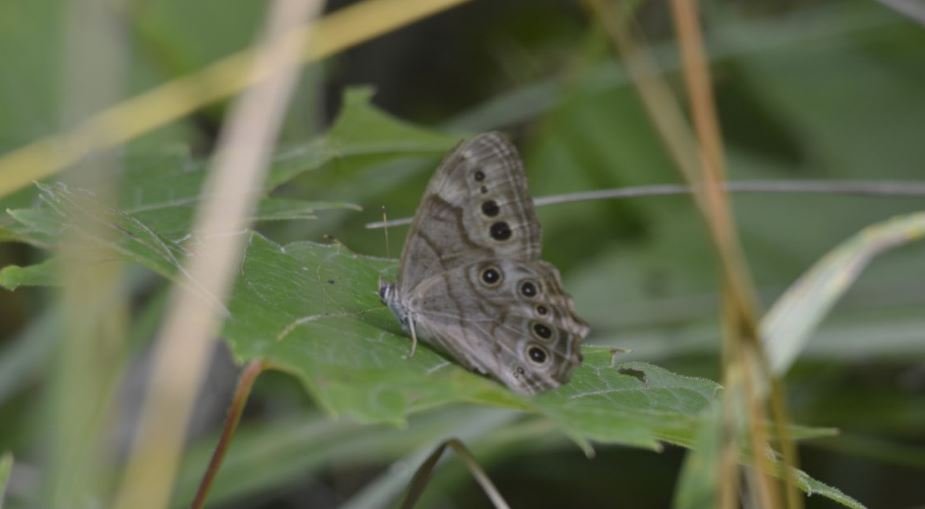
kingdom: Animalia
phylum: Arthropoda
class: Insecta
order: Lepidoptera
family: Nymphalidae
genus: Lethe
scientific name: Lethe anthedon
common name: Northern Pearly-Eye
